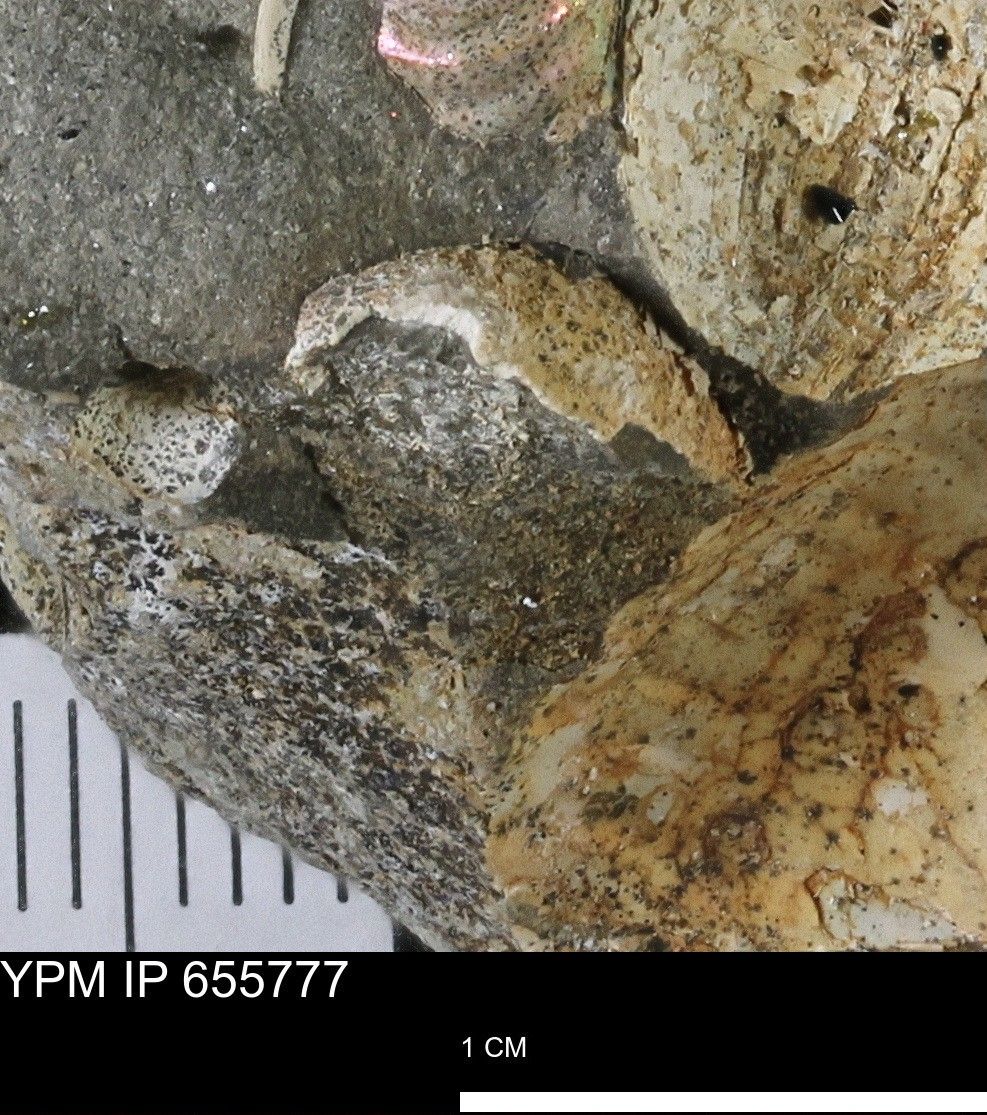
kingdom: Animalia
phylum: Mollusca
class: Bivalvia
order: Arcida
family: Limopsidae
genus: Limopsis
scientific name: Limopsis
